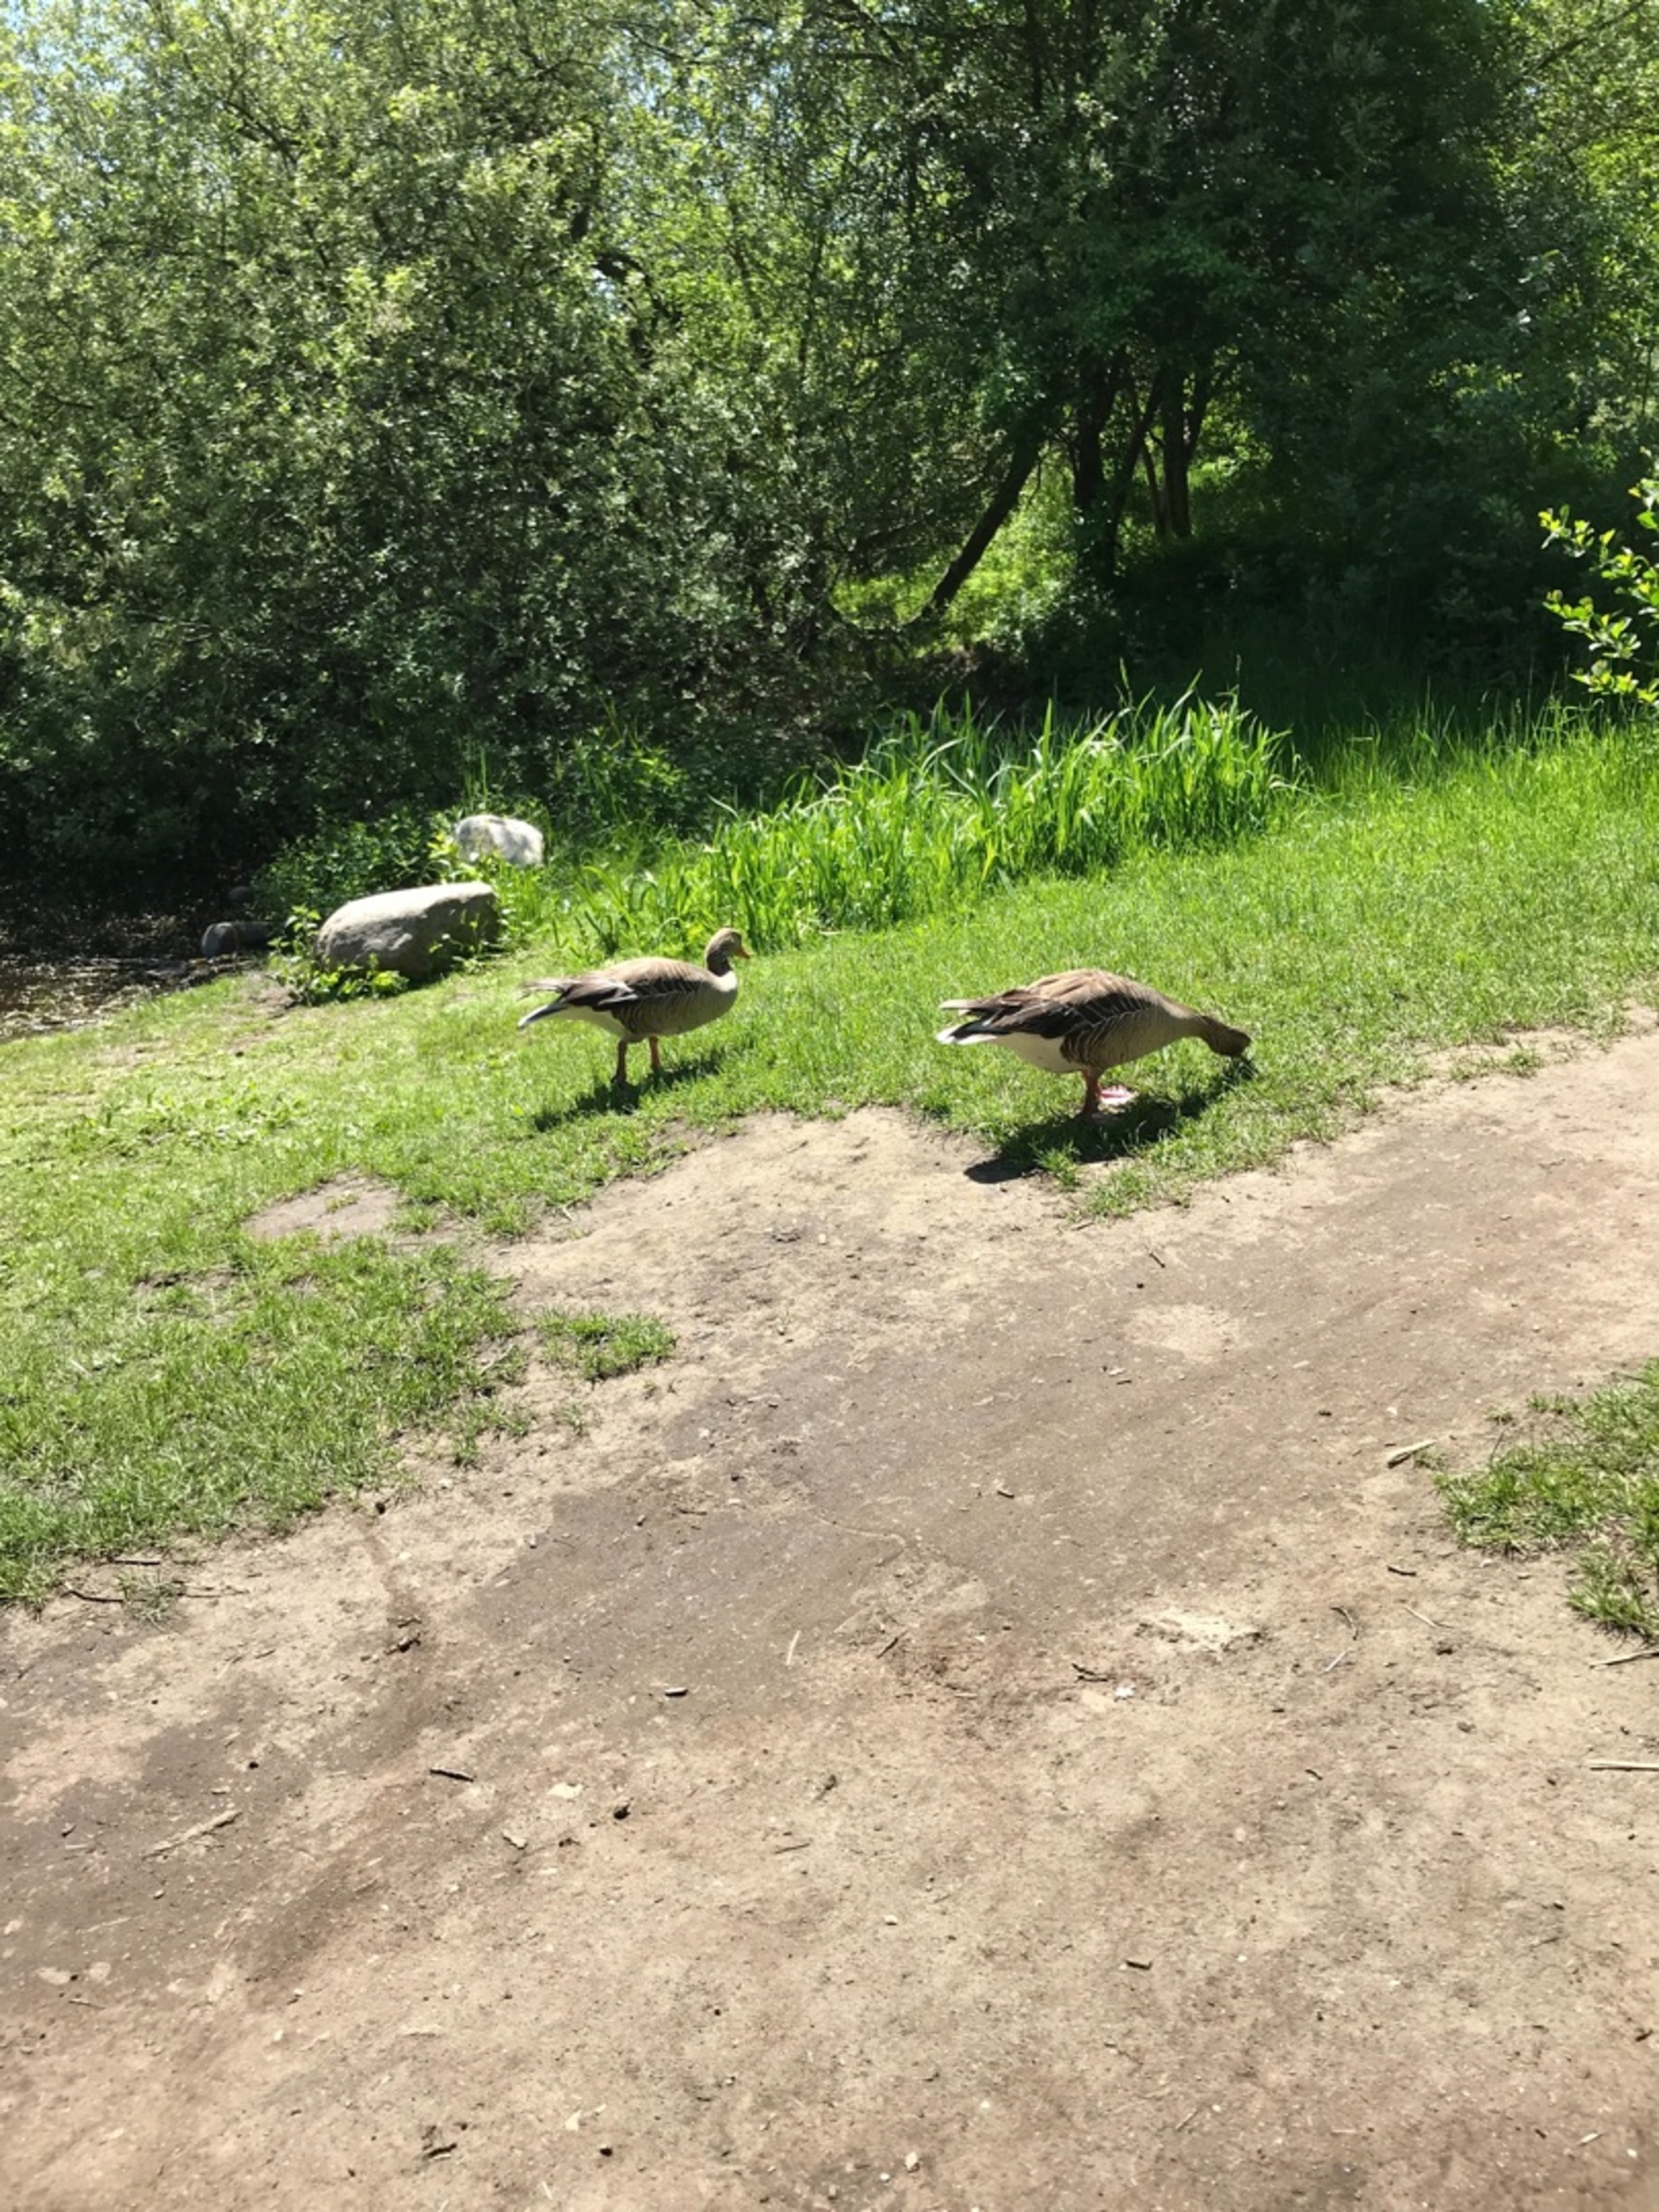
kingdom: Animalia
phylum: Chordata
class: Aves
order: Anseriformes
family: Anatidae
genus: Anser
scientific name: Anser anser
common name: Grågås
